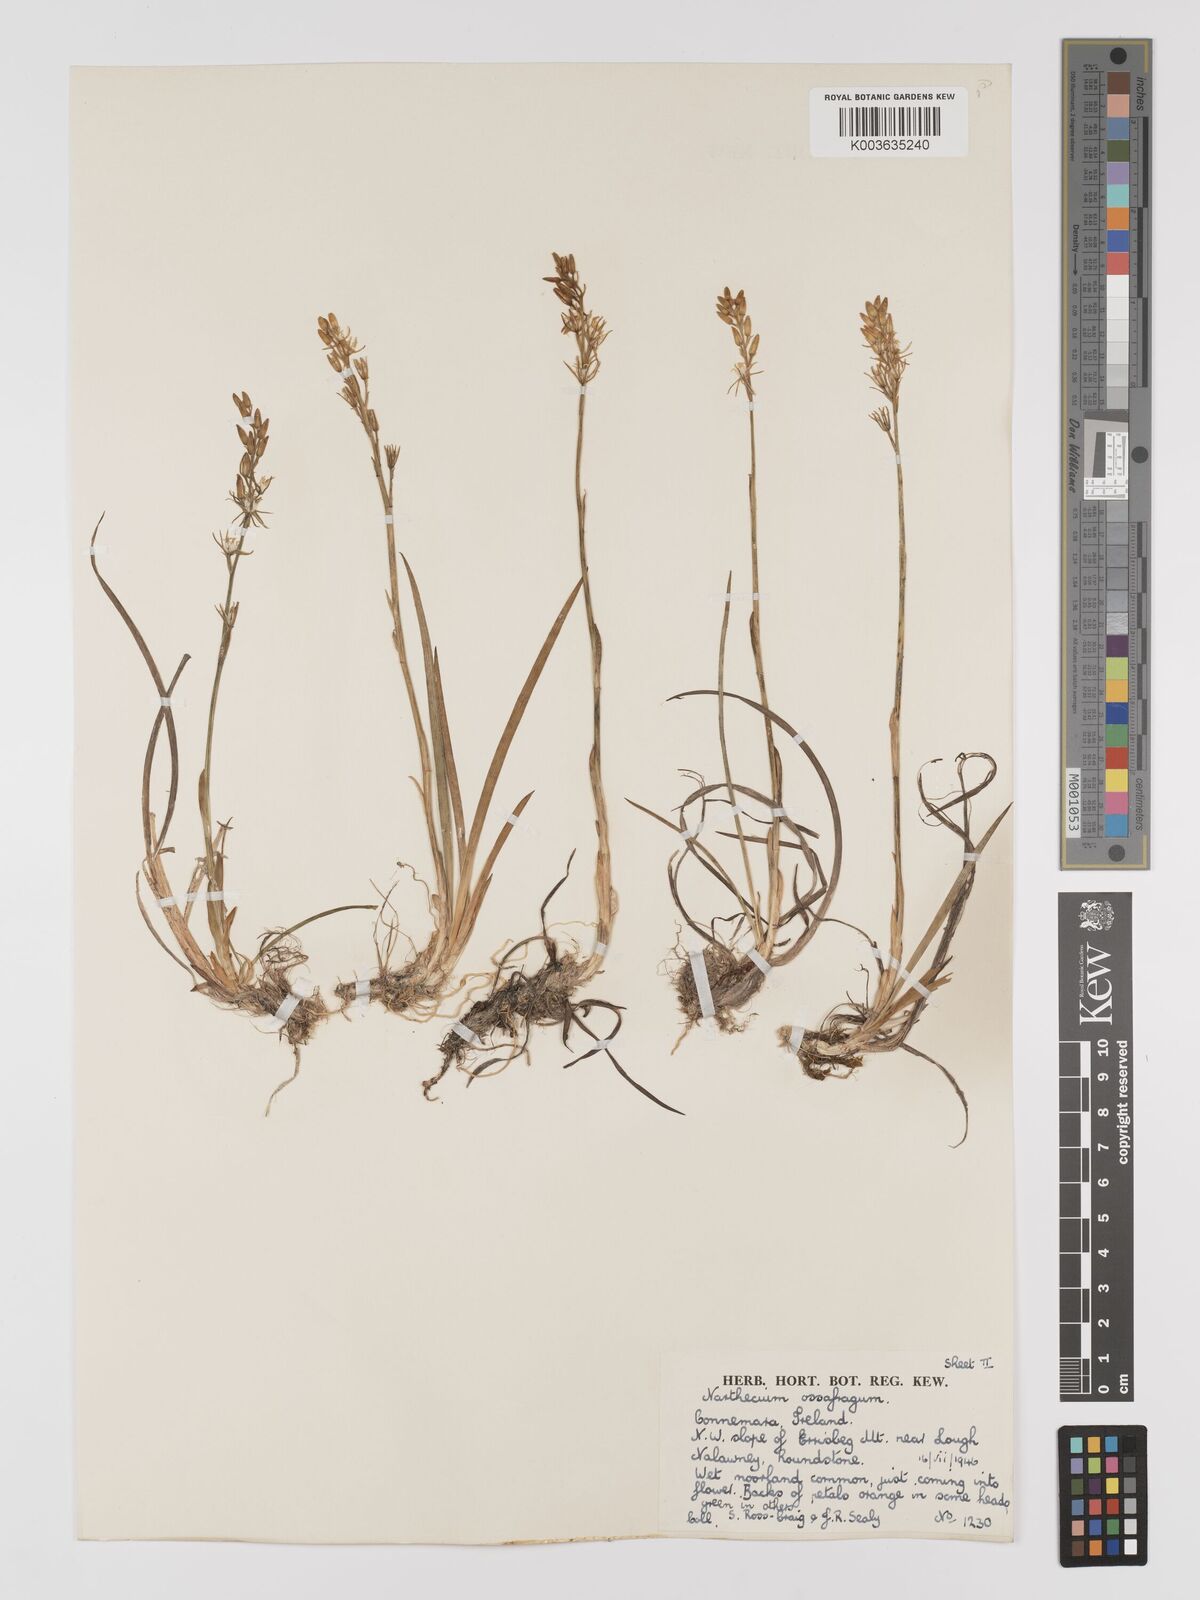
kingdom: Plantae
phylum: Tracheophyta
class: Liliopsida
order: Dioscoreales
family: Nartheciaceae
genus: Narthecium
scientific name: Narthecium ossifragum
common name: Bog asphodel
